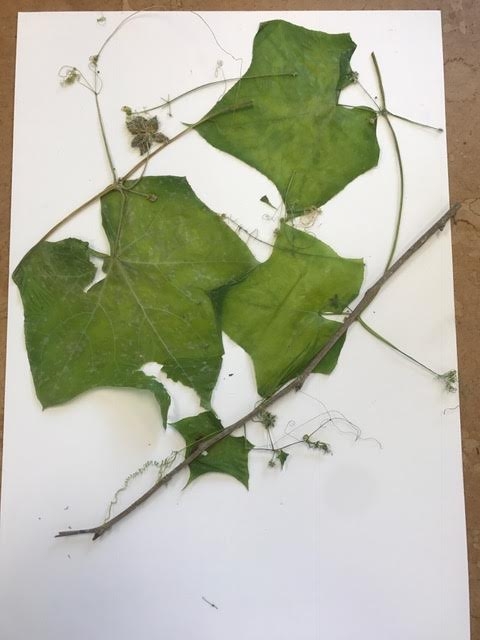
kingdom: Plantae
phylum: Tracheophyta
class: Magnoliopsida
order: Cucurbitales
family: Cucurbitaceae
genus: Sicyos
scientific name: Sicyos angulatus
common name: star cucumber
